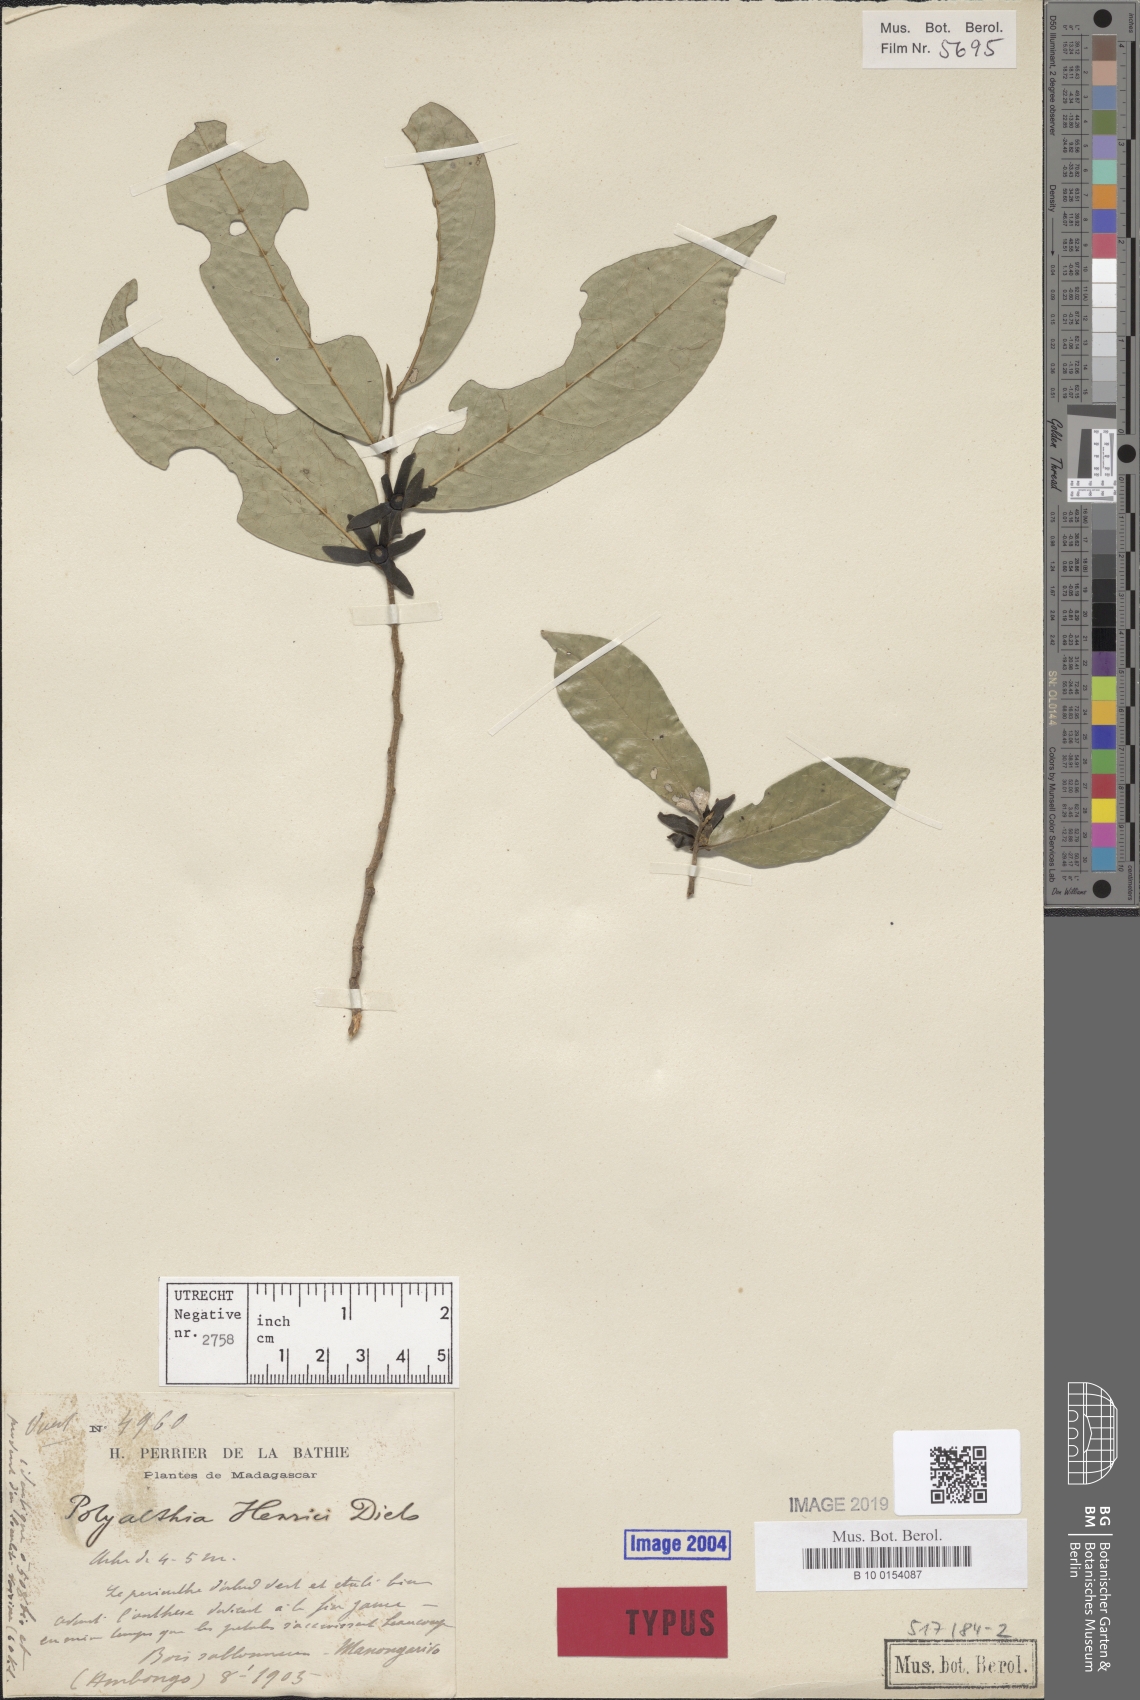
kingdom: Plantae
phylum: Tracheophyta
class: Magnoliopsida
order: Magnoliales
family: Annonaceae
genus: Hubera
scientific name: Hubera henrici
